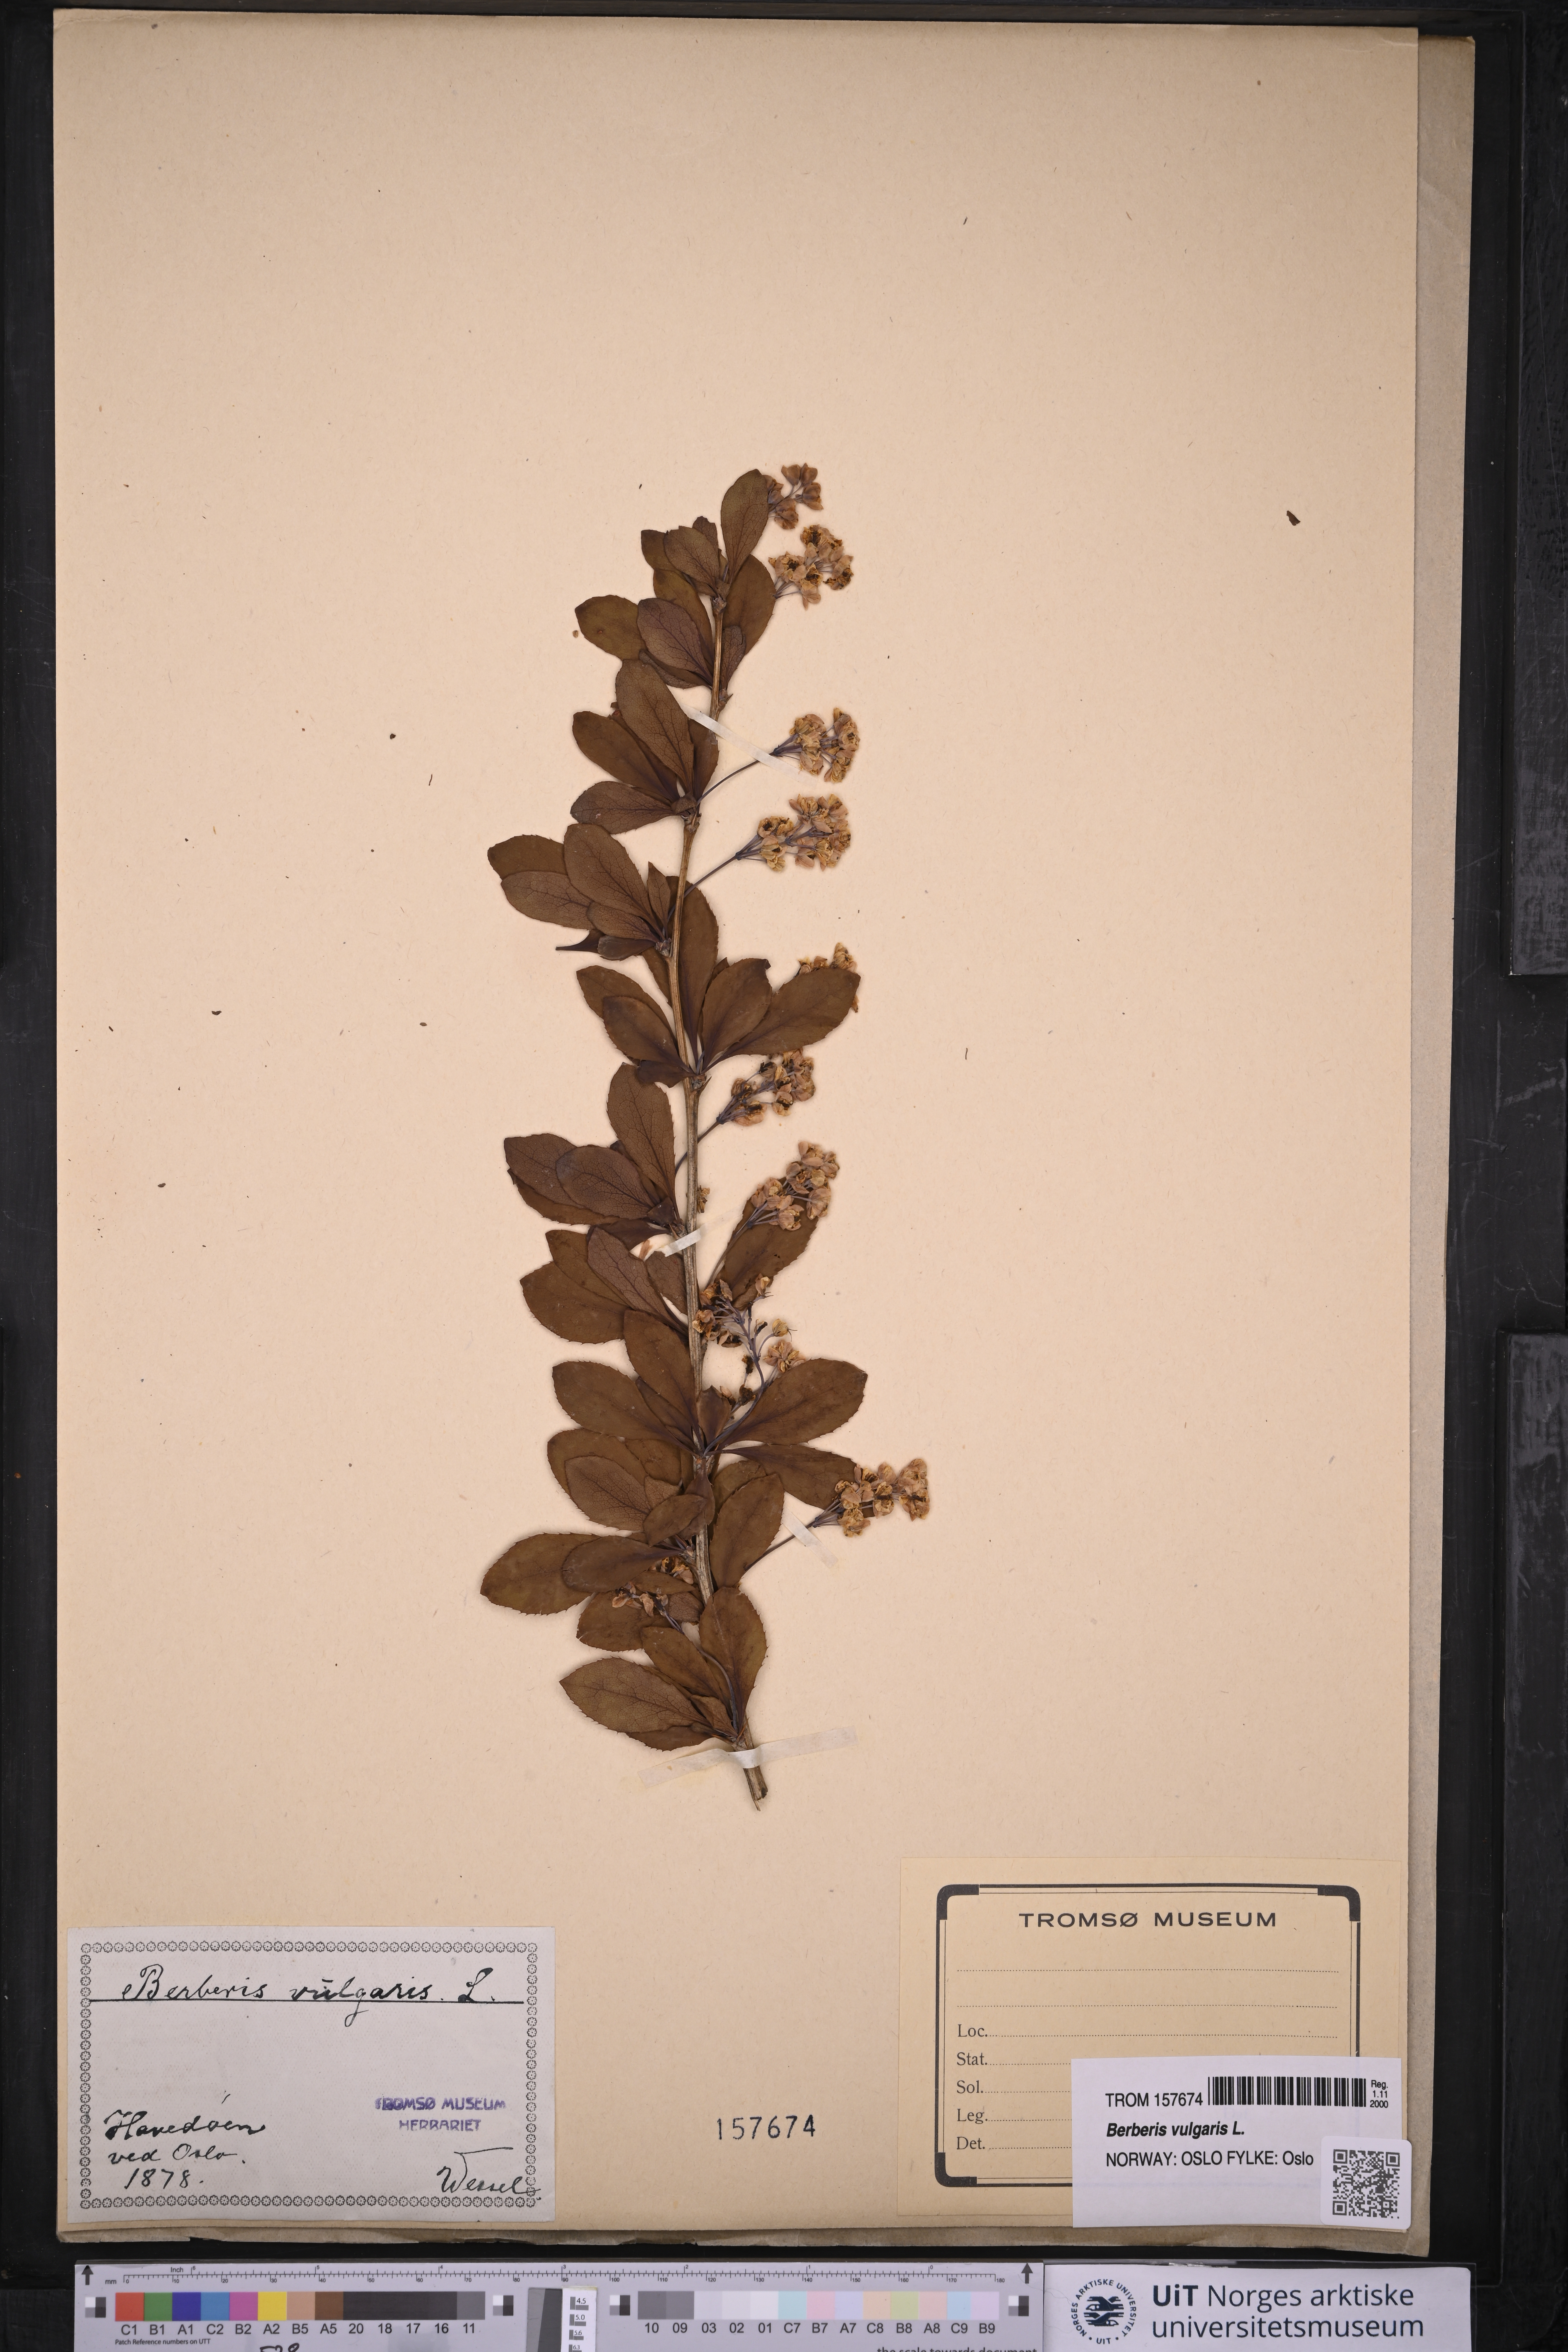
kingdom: Plantae
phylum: Tracheophyta
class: Magnoliopsida
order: Ranunculales
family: Berberidaceae
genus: Berberis
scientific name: Berberis vulgaris
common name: Barberry
